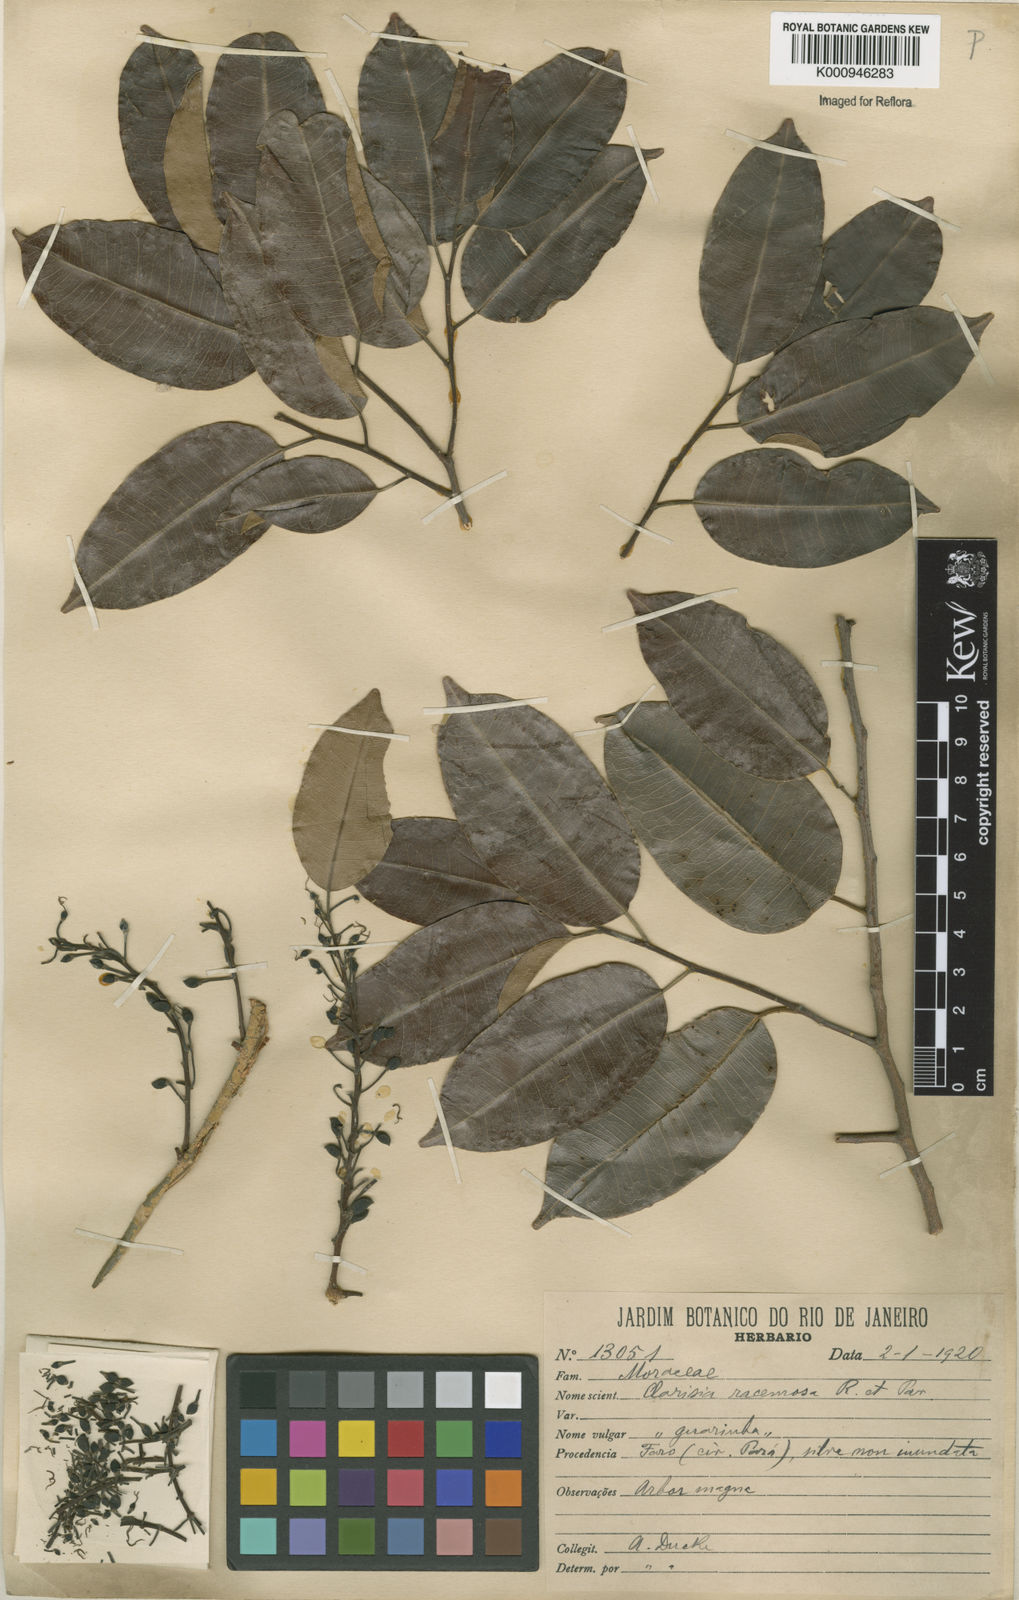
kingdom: Plantae
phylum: Tracheophyta
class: Magnoliopsida
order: Rosales
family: Moraceae
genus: Clarisia
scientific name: Clarisia racemosa
